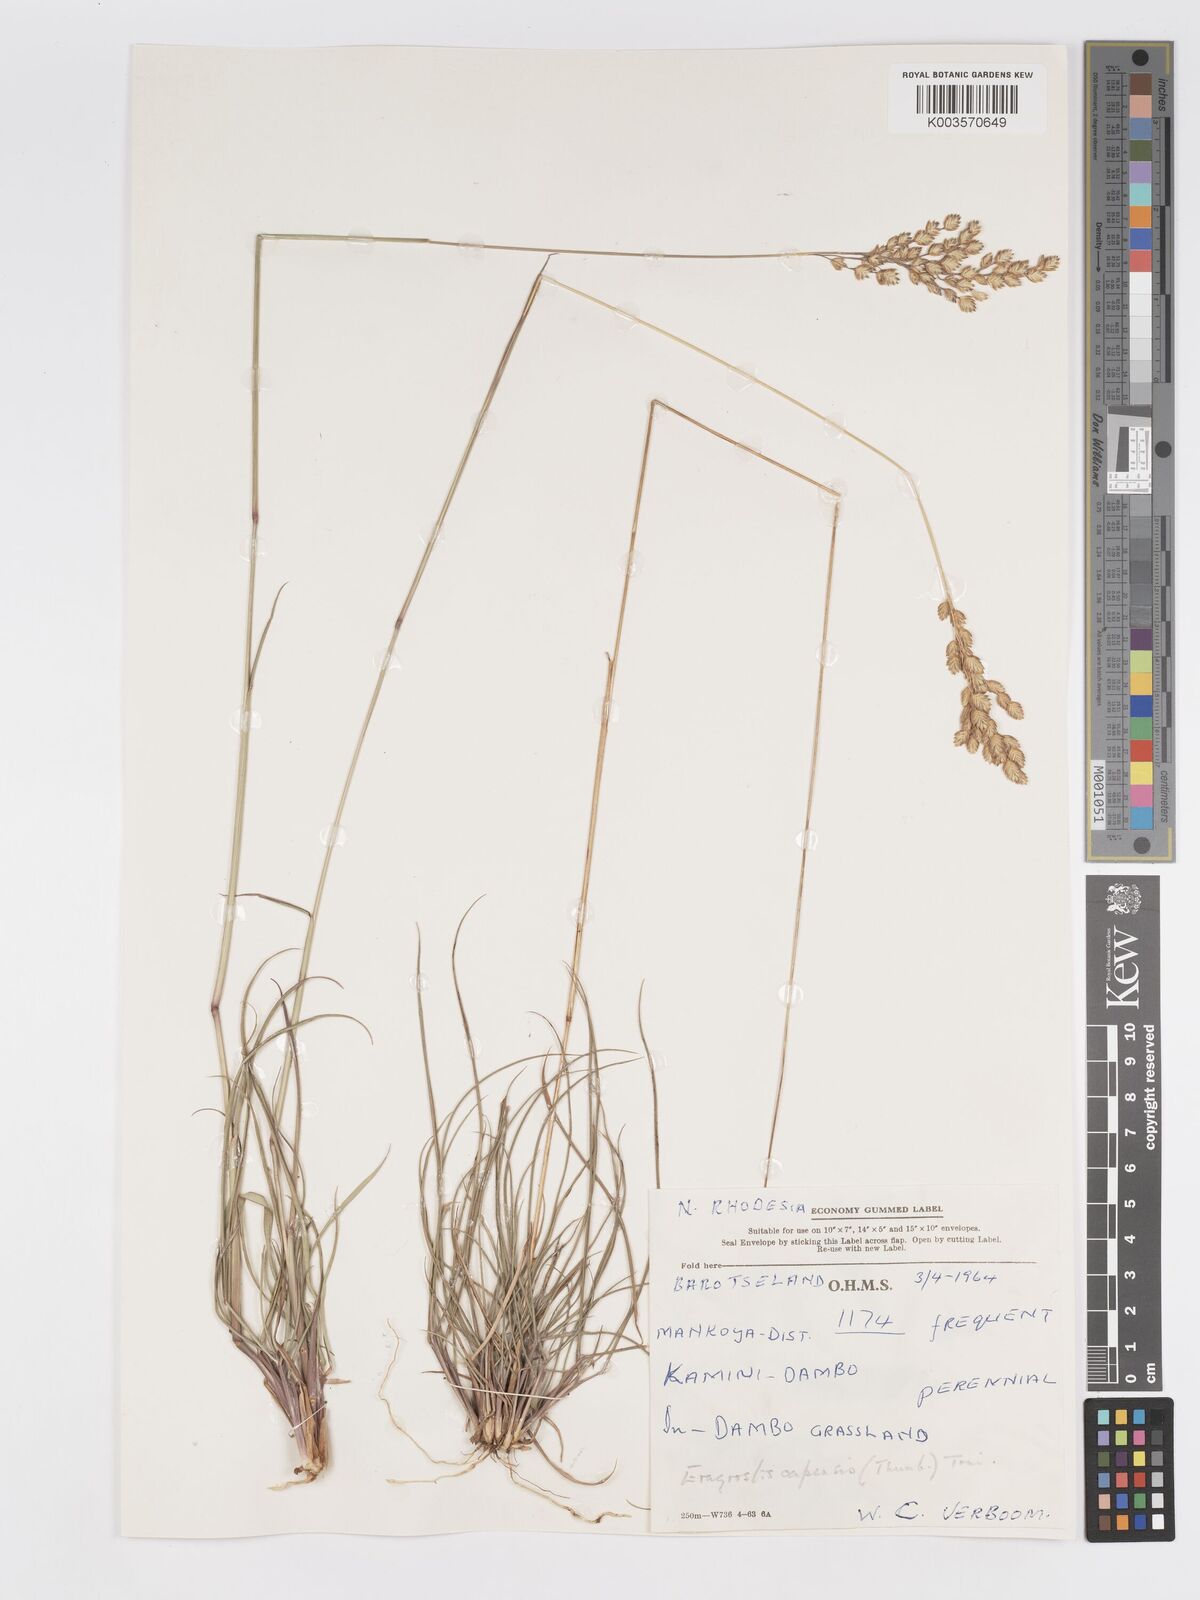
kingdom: Plantae
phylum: Tracheophyta
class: Liliopsida
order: Poales
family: Poaceae
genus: Eragrostis
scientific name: Eragrostis capensis
